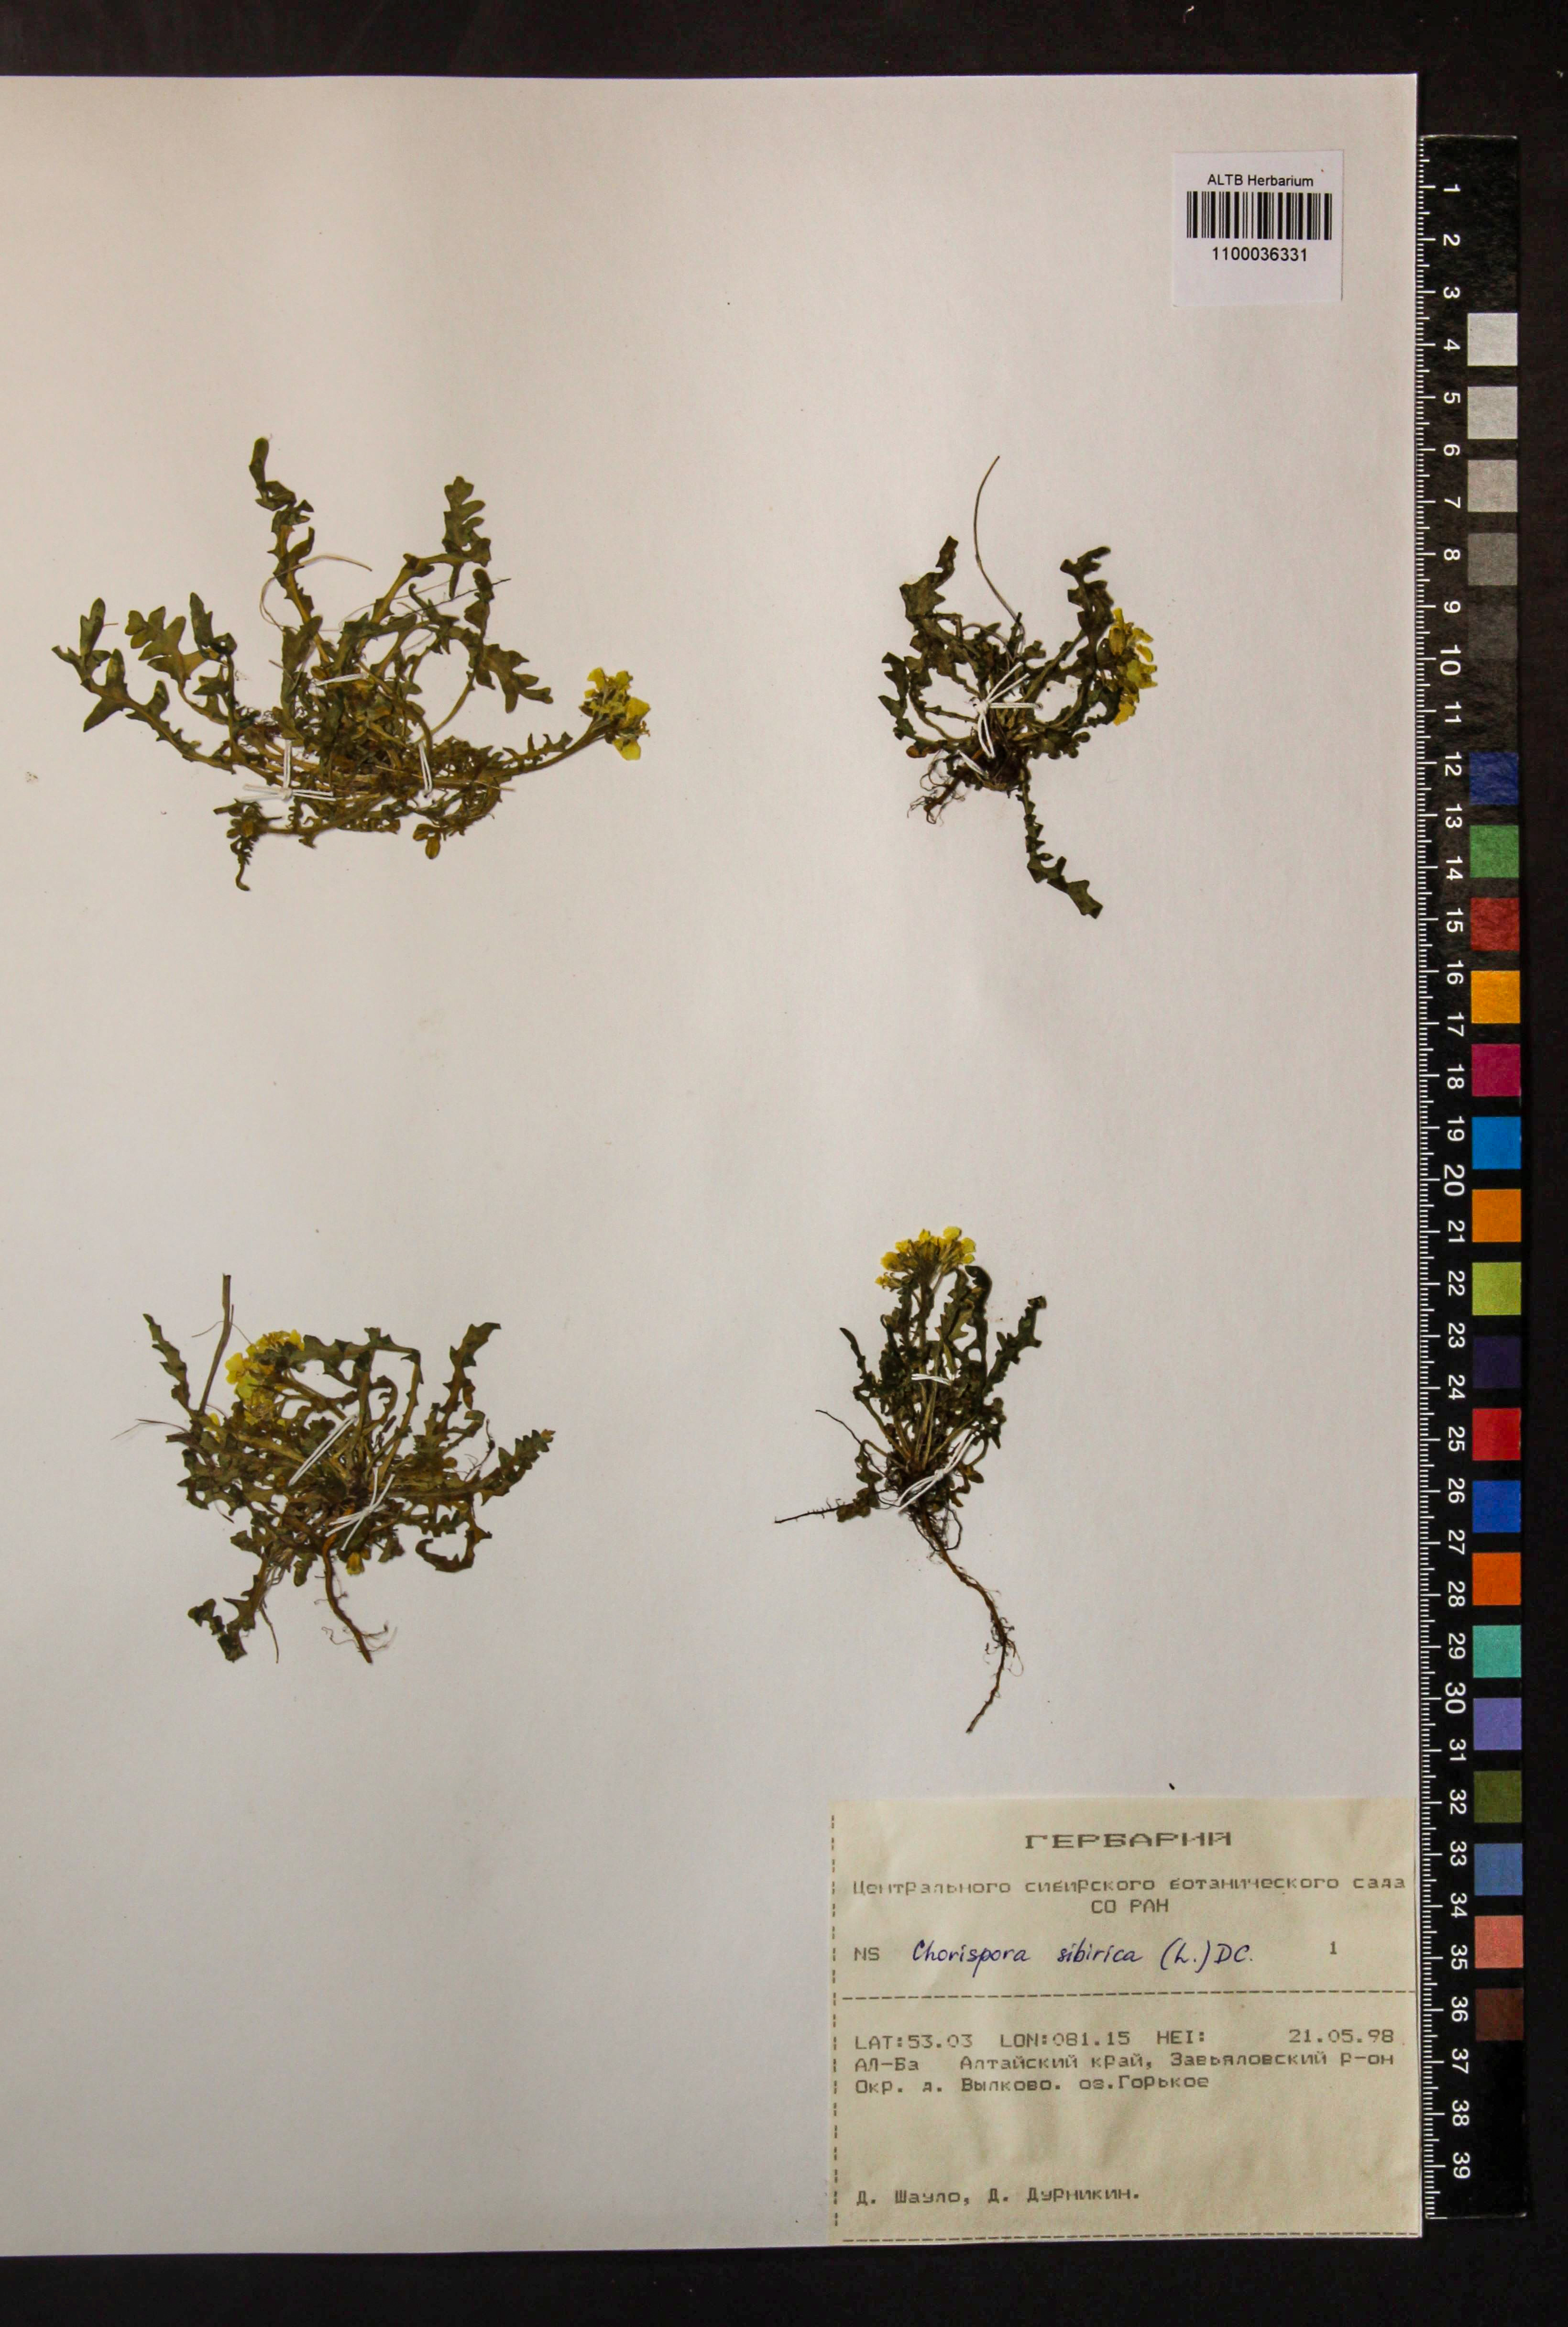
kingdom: Plantae
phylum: Tracheophyta
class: Magnoliopsida
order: Brassicales
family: Brassicaceae
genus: Chorispora
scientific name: Chorispora sibirica
